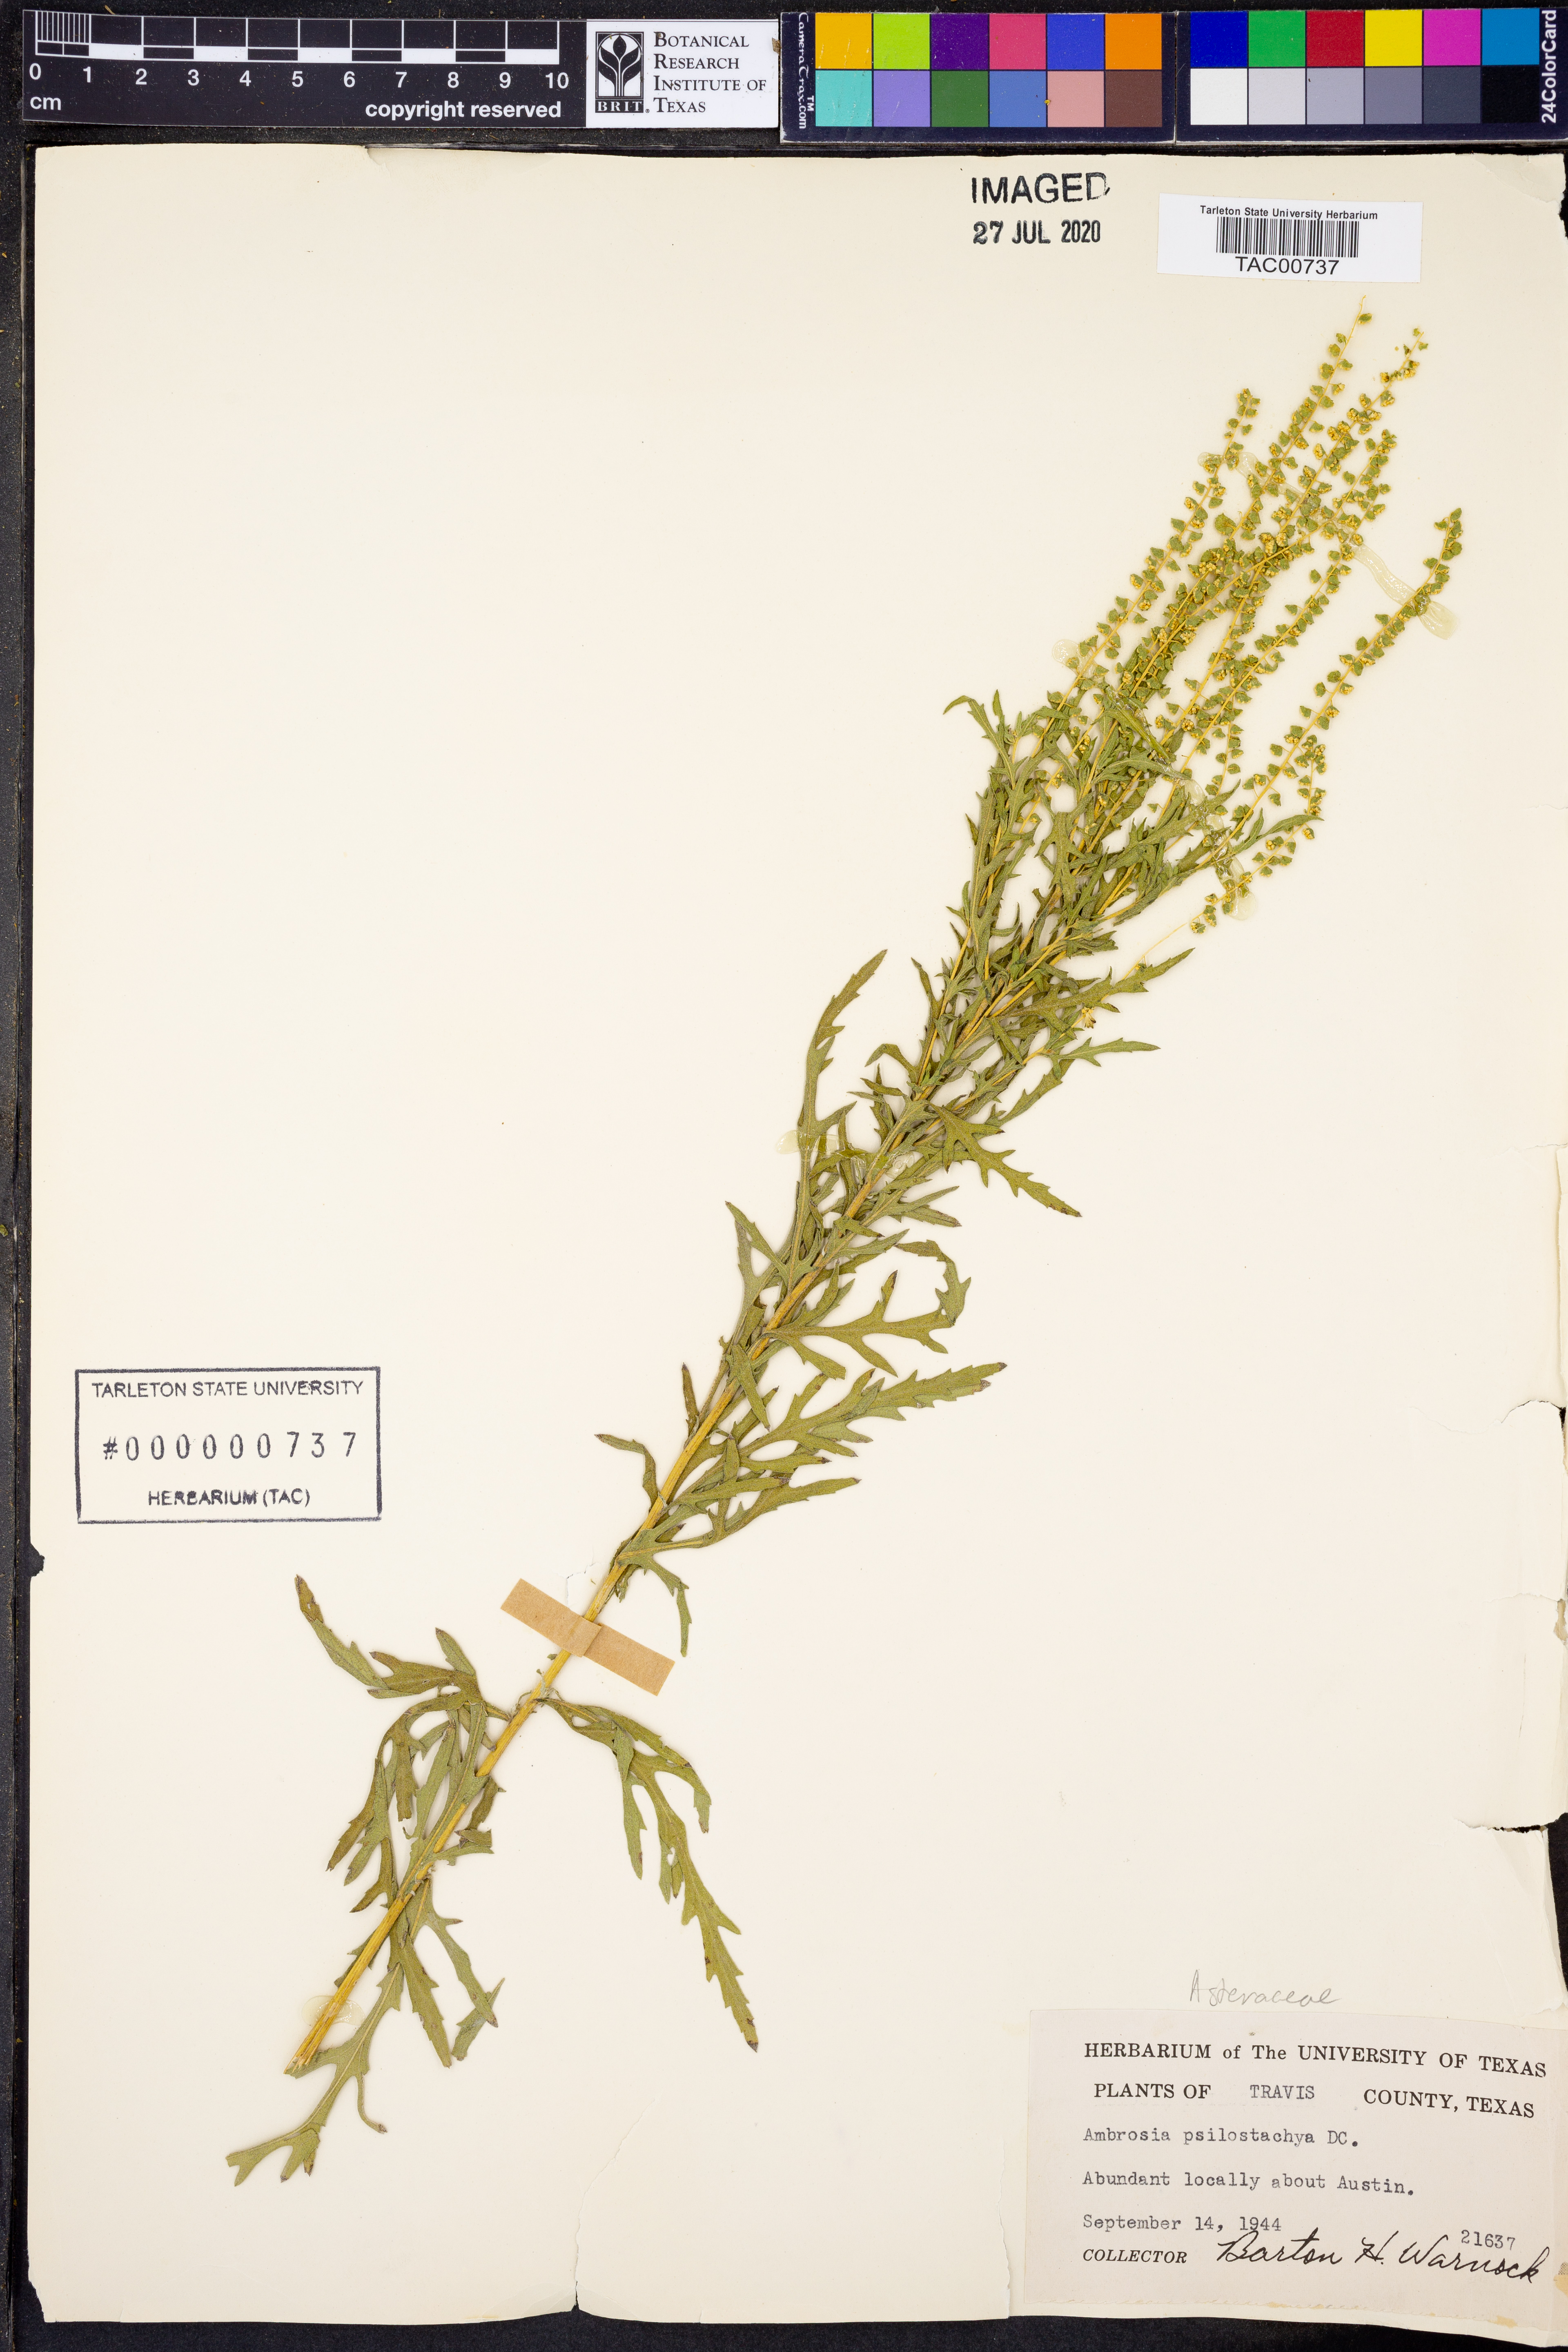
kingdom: Plantae
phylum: Tracheophyta
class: Magnoliopsida
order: Asterales
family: Asteraceae
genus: Ambrosia
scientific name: Ambrosia psilostachya
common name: Perennial ragweed
